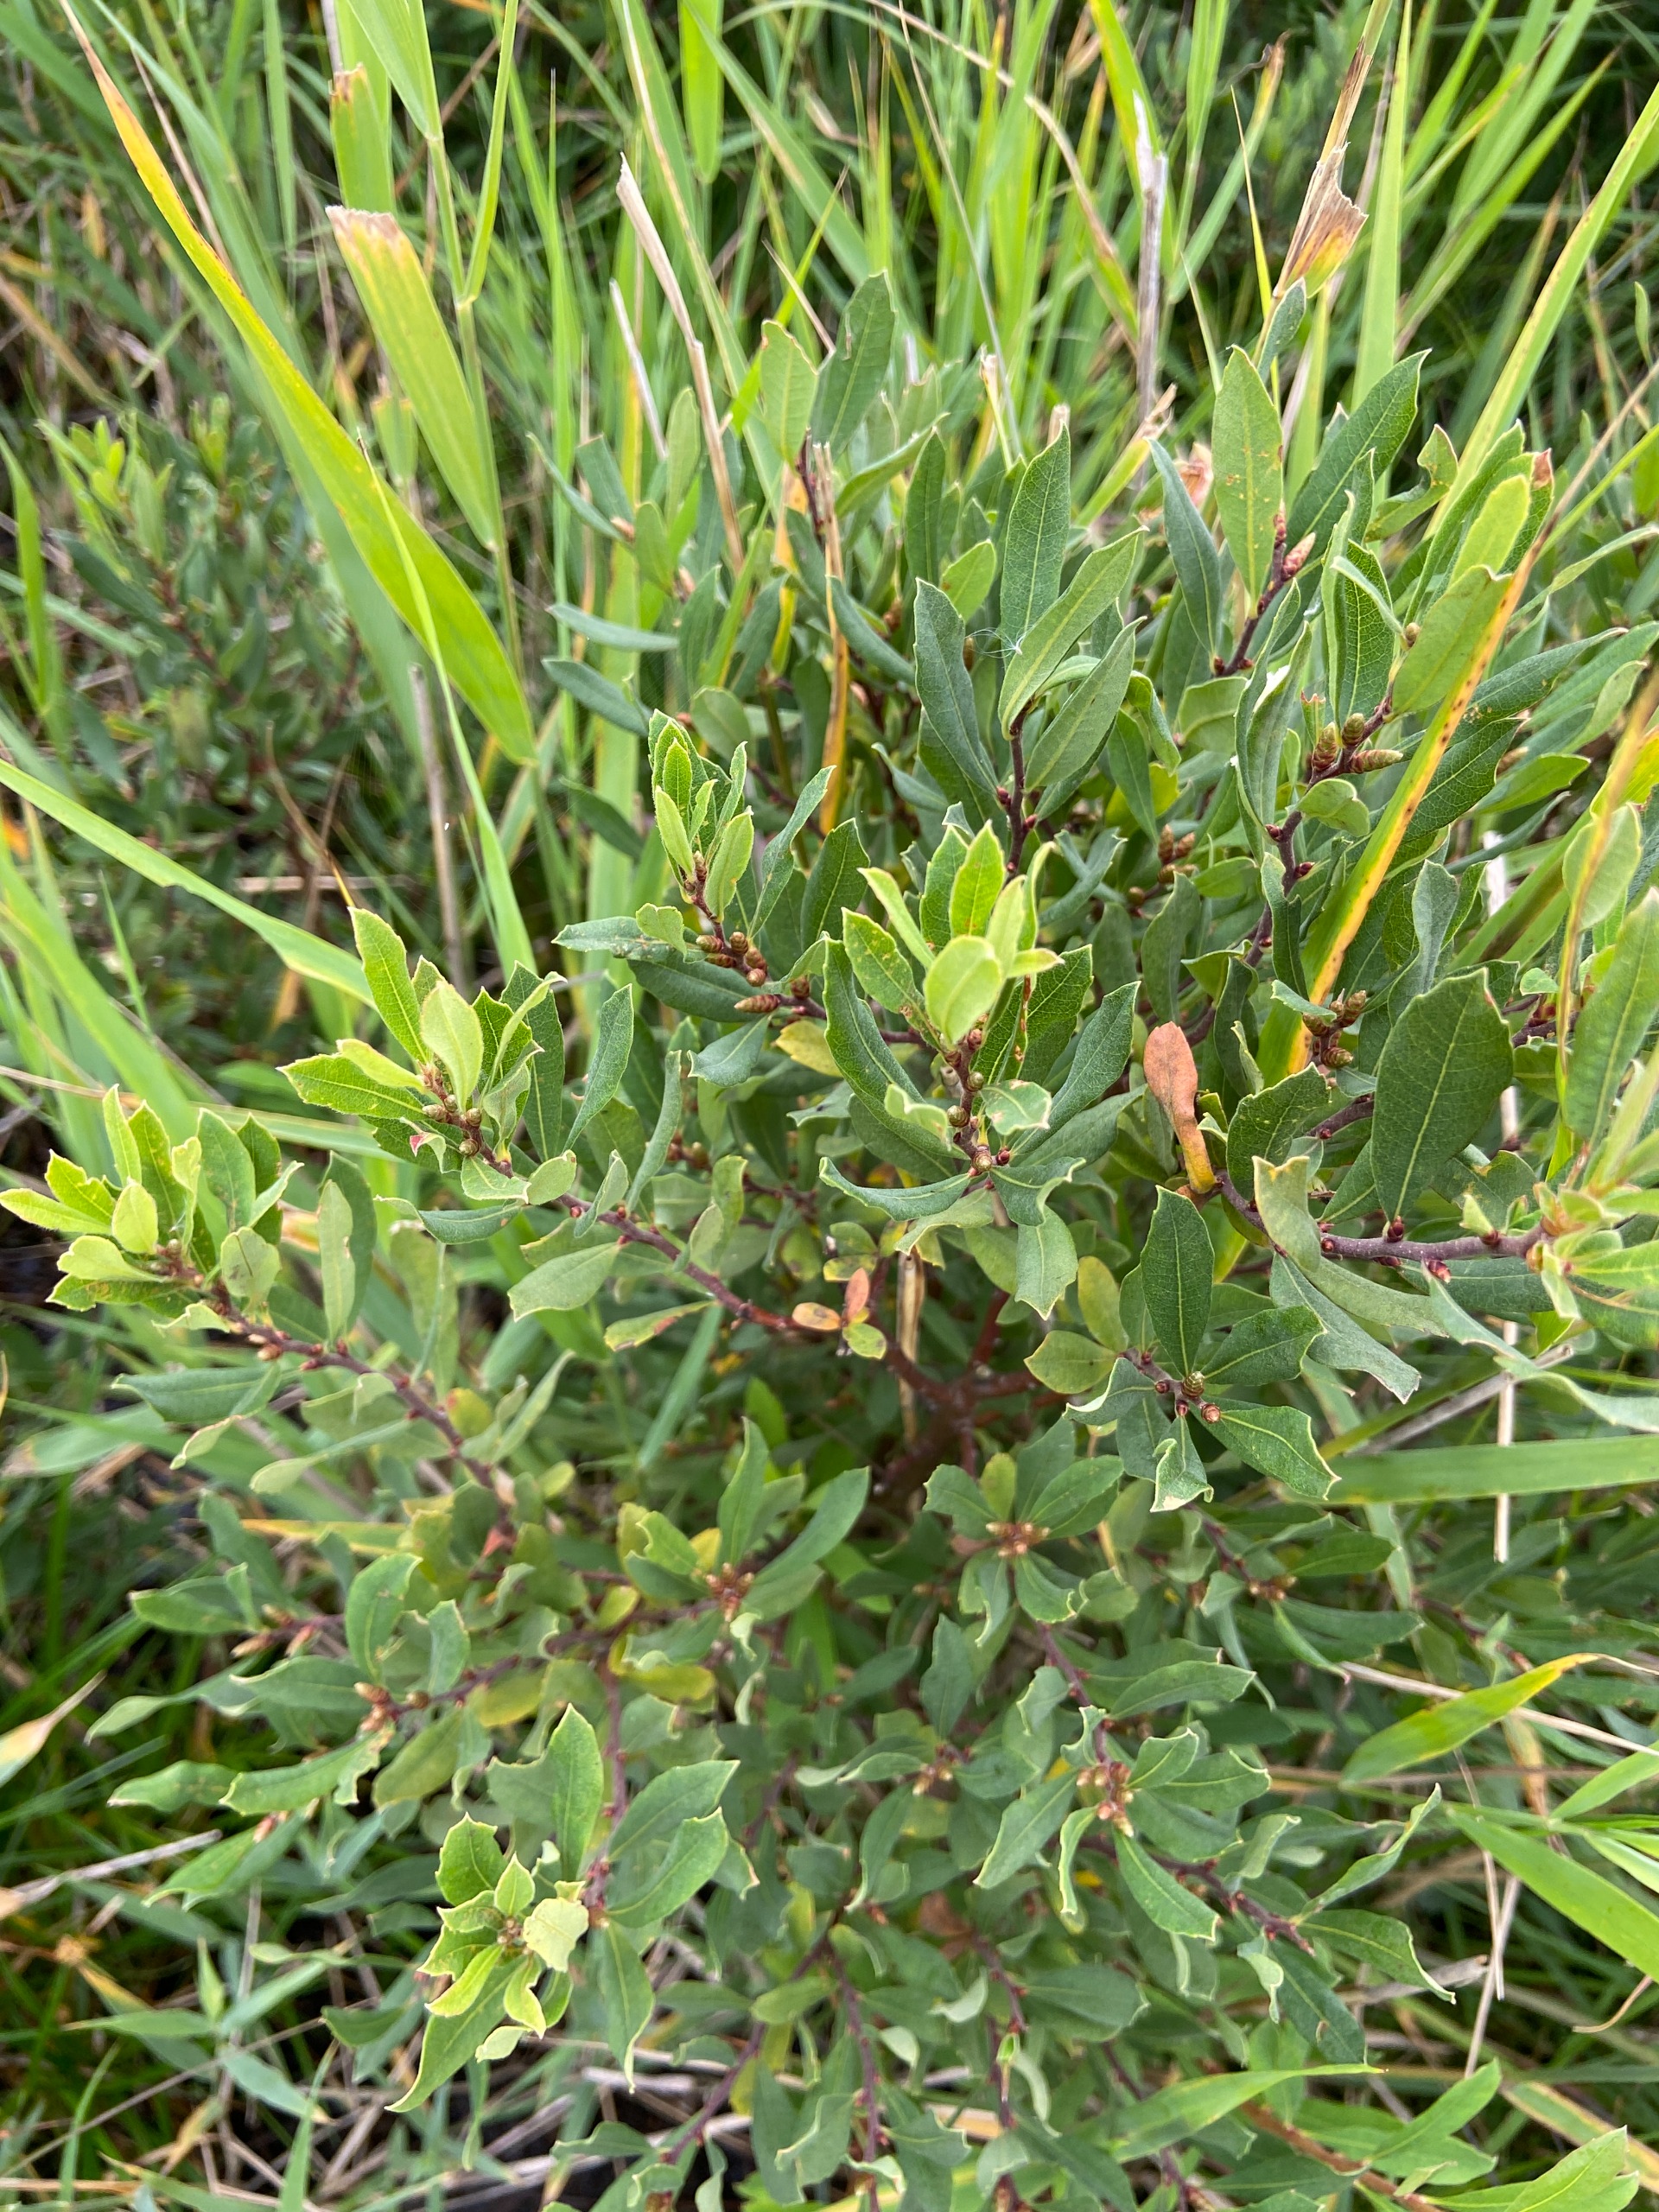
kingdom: Plantae
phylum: Tracheophyta
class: Magnoliopsida
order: Fagales
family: Myricaceae
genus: Myrica
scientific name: Myrica gale
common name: Pors
